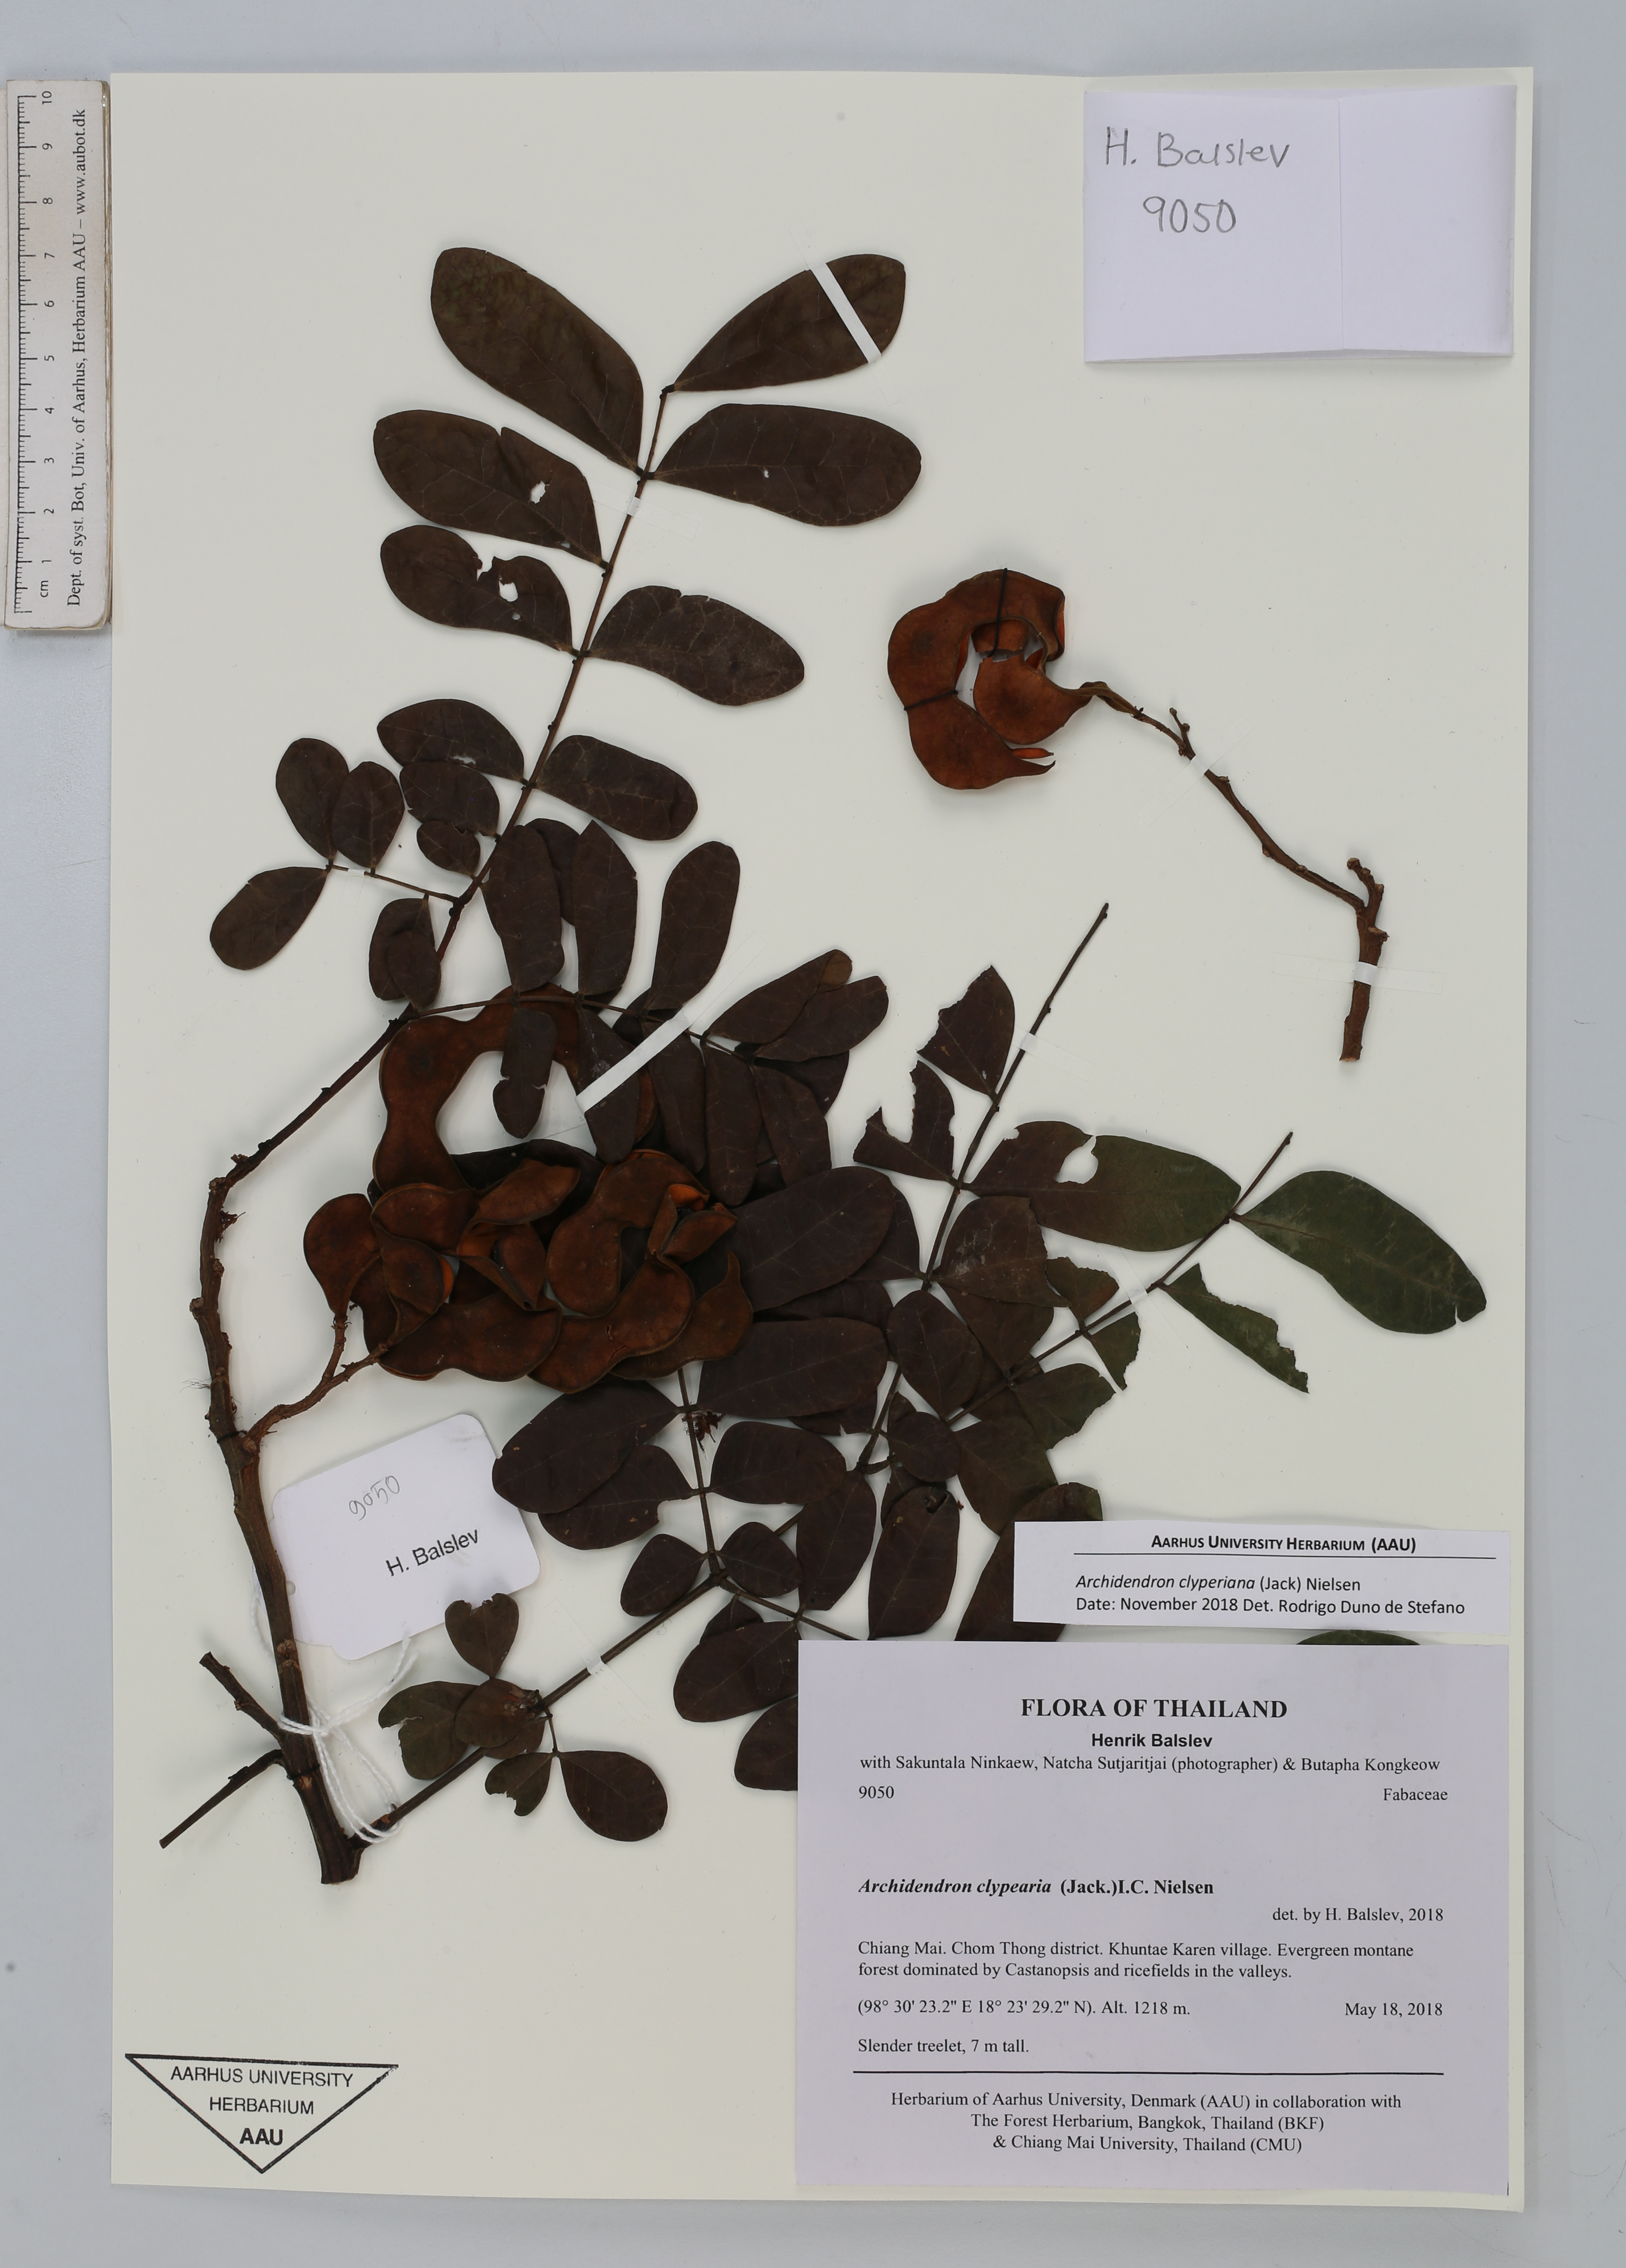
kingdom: Plantae
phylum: Tracheophyta
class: Magnoliopsida
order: Fabales
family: Fabaceae
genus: Archidendron
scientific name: Archidendron clypearia
